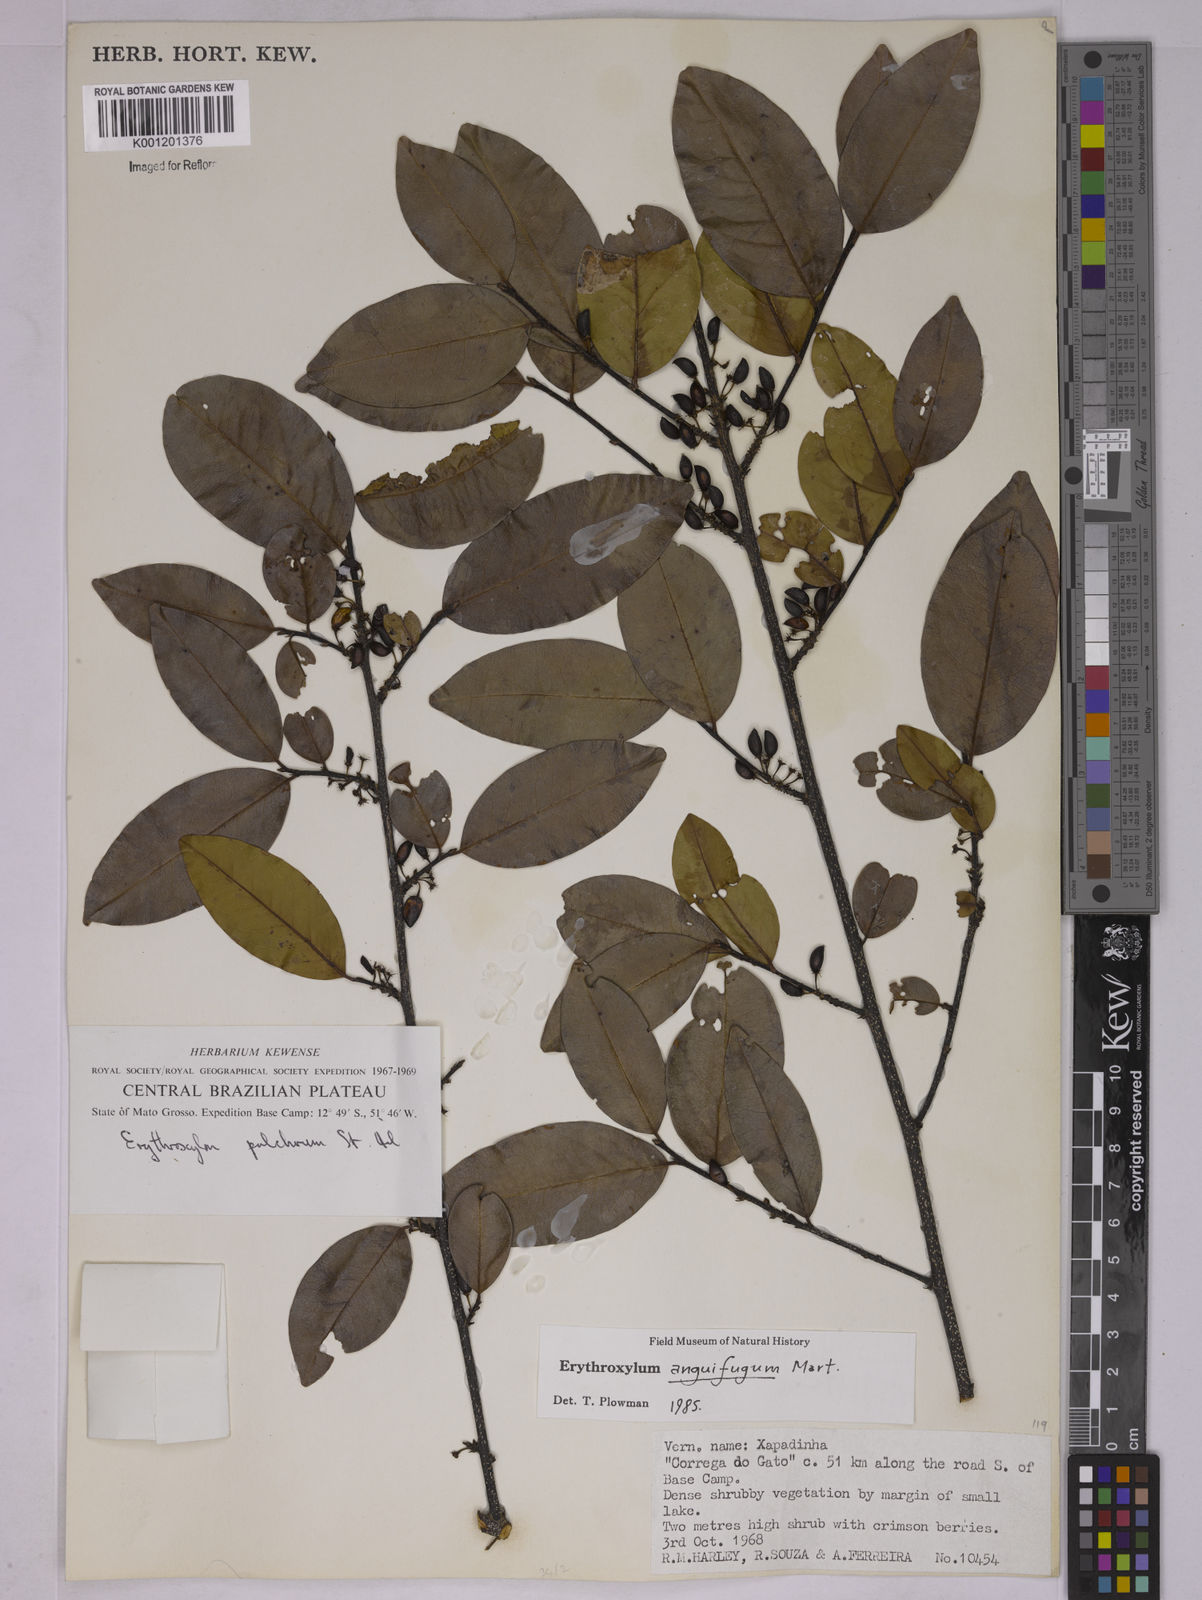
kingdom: Plantae
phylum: Tracheophyta
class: Magnoliopsida
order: Malpighiales
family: Erythroxylaceae
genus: Erythroxylum
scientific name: Erythroxylum anguifugum
